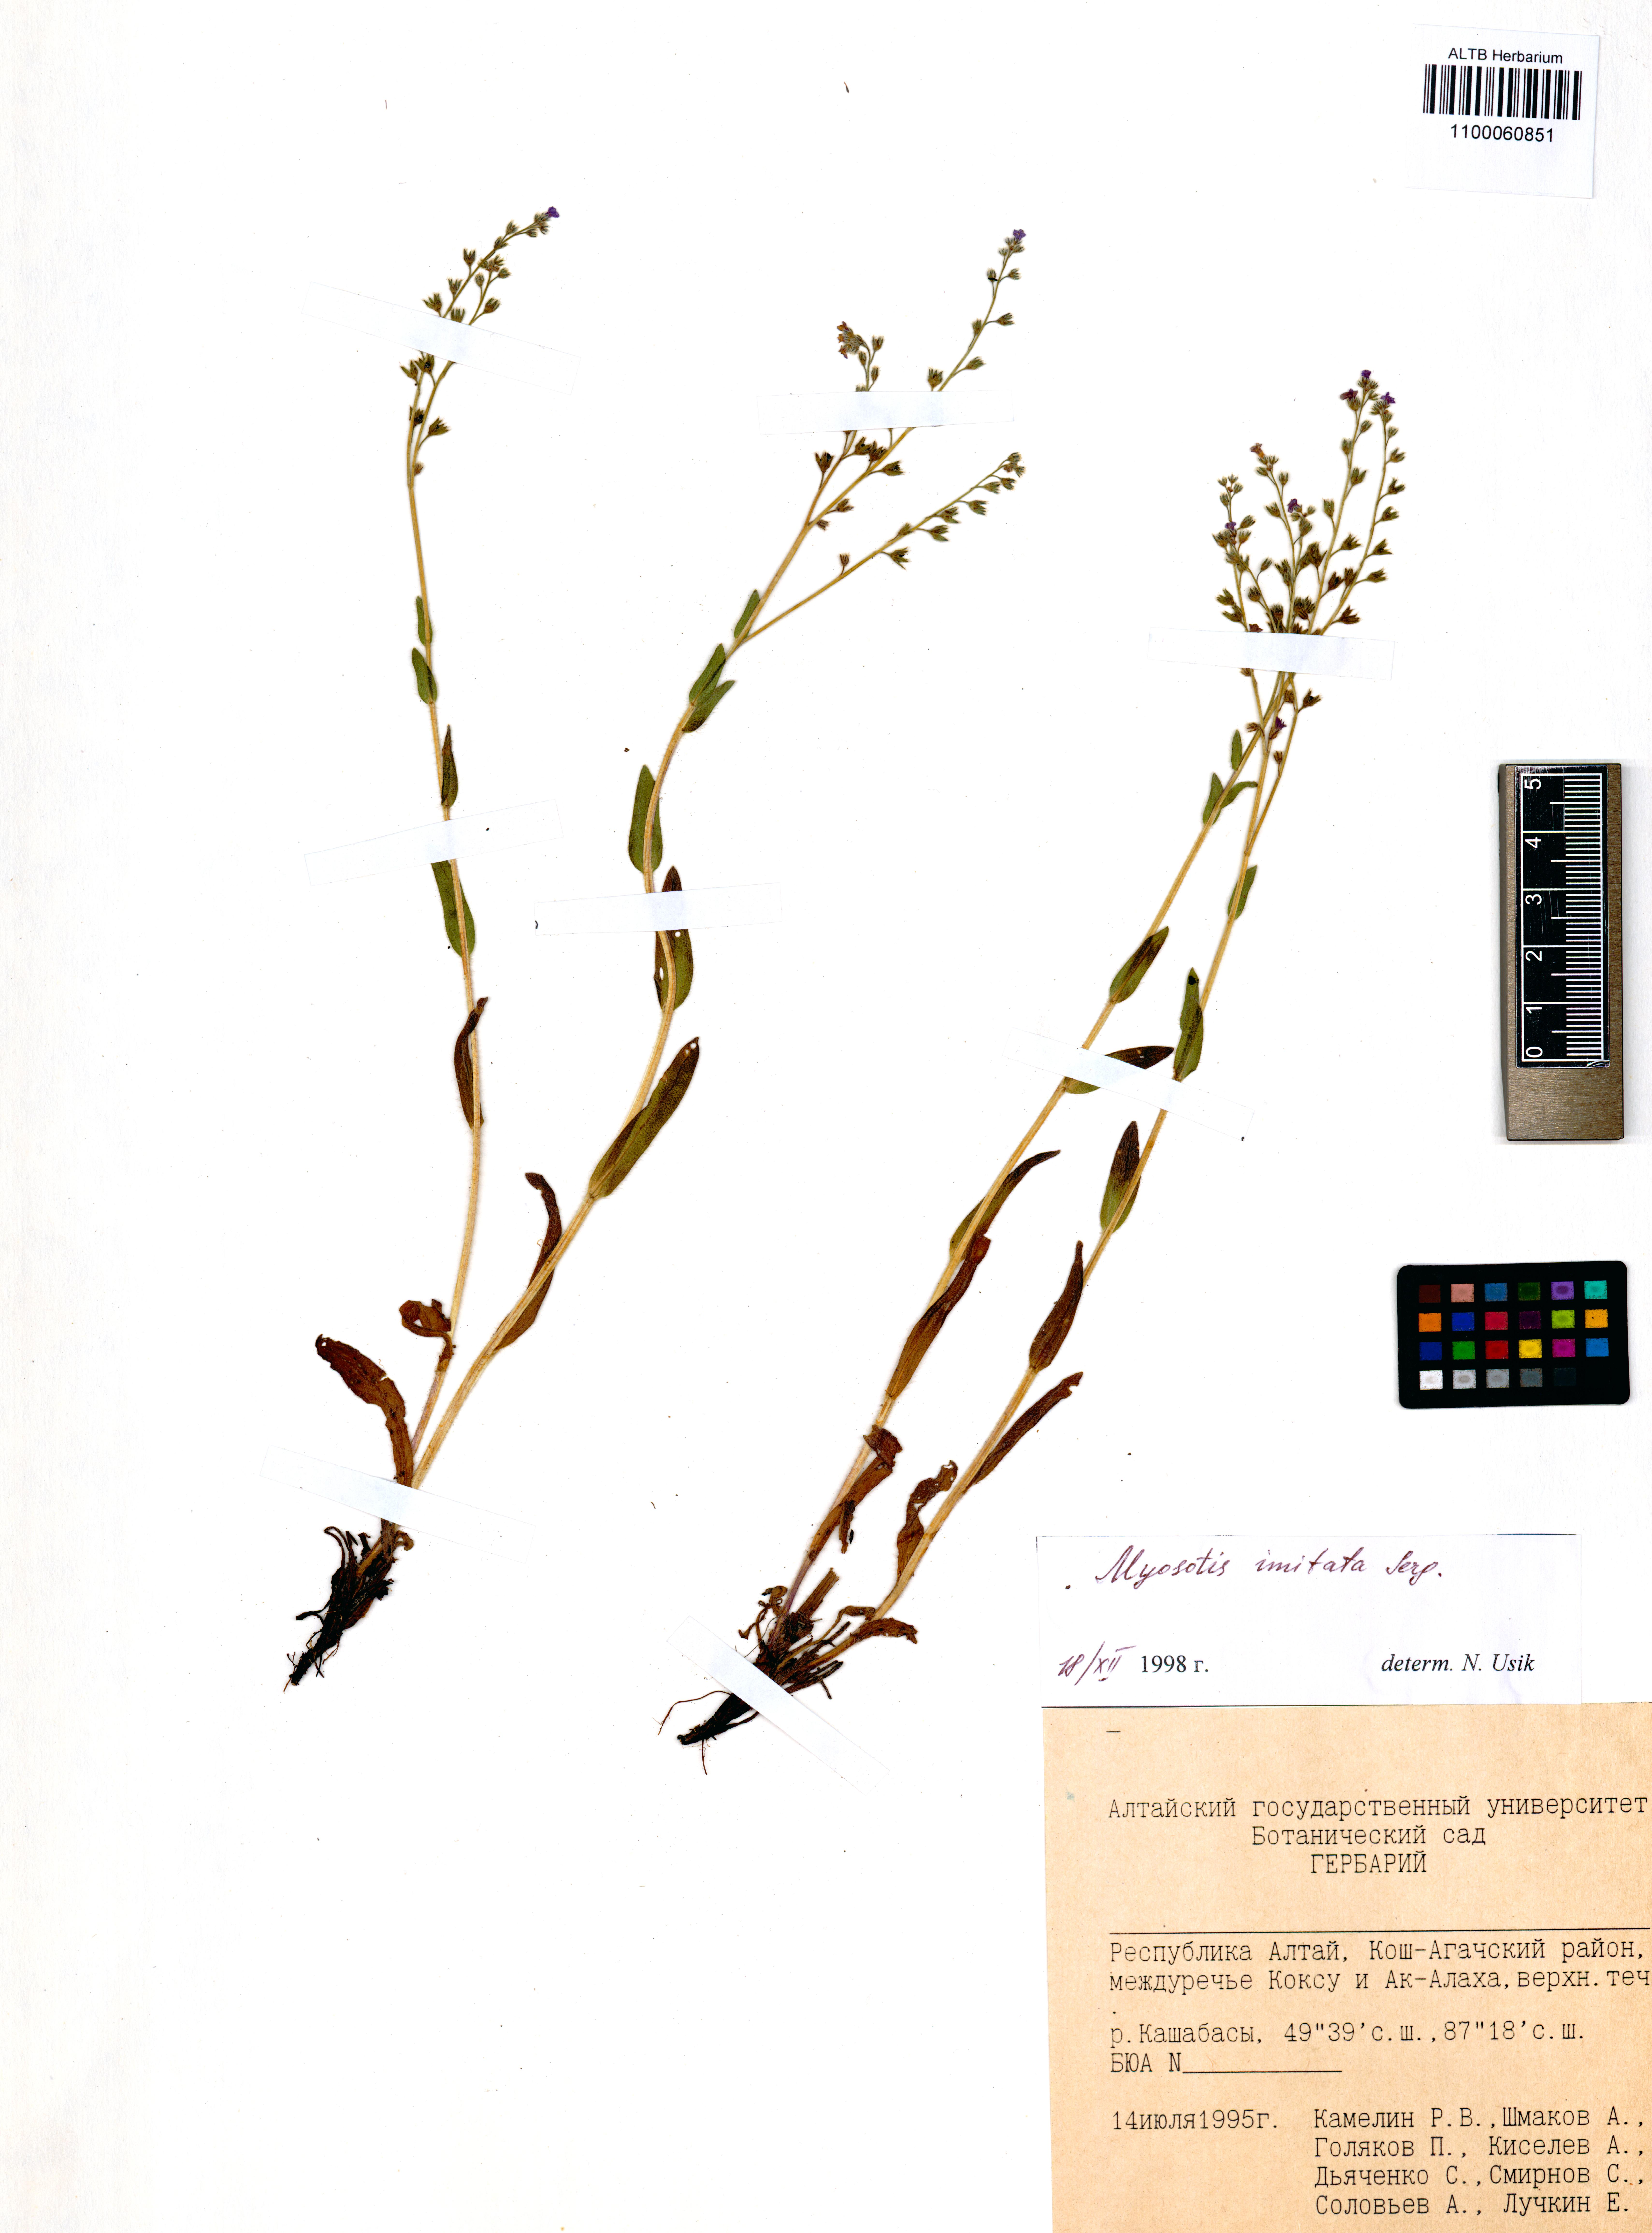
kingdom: Plantae
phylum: Tracheophyta
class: Magnoliopsida
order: Boraginales
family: Boraginaceae
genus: Myosotis
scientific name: Myosotis imitata
